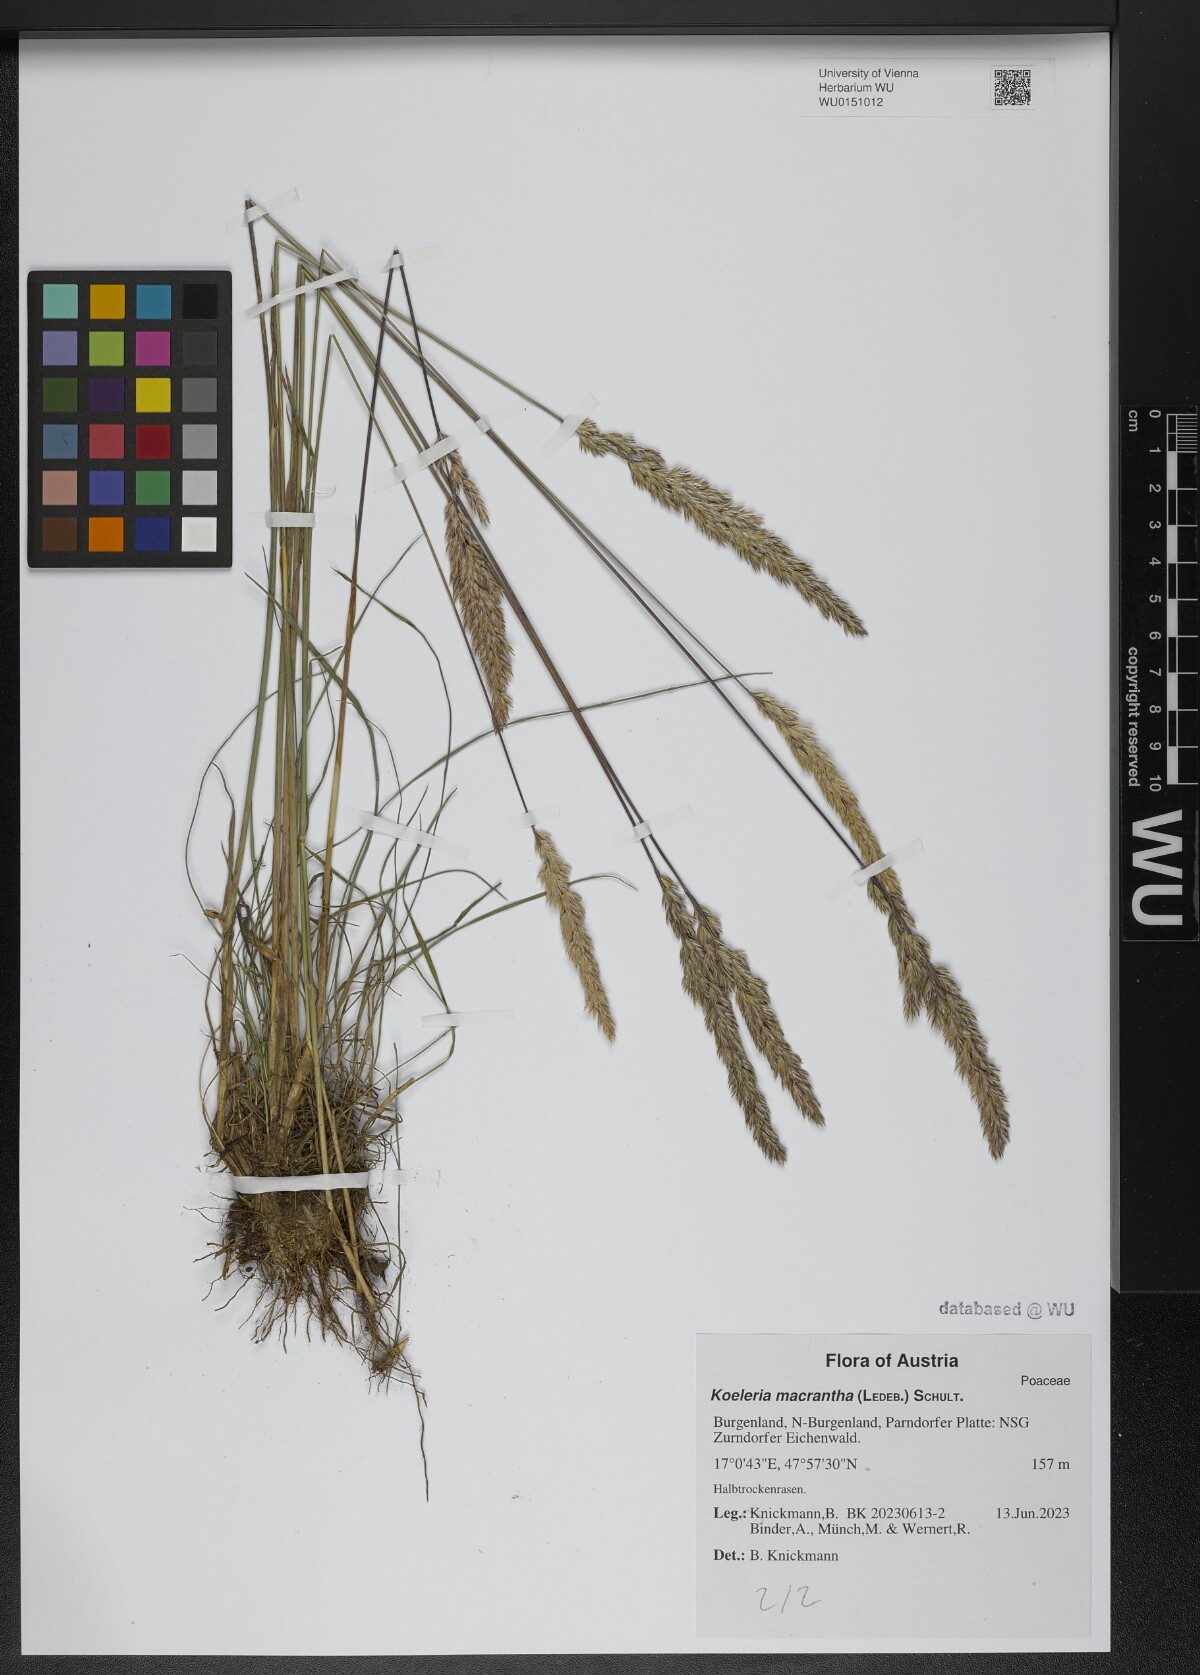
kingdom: Plantae
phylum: Tracheophyta
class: Liliopsida
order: Poales
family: Poaceae
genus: Koeleria
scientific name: Koeleria macrantha
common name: Crested hair-grass
